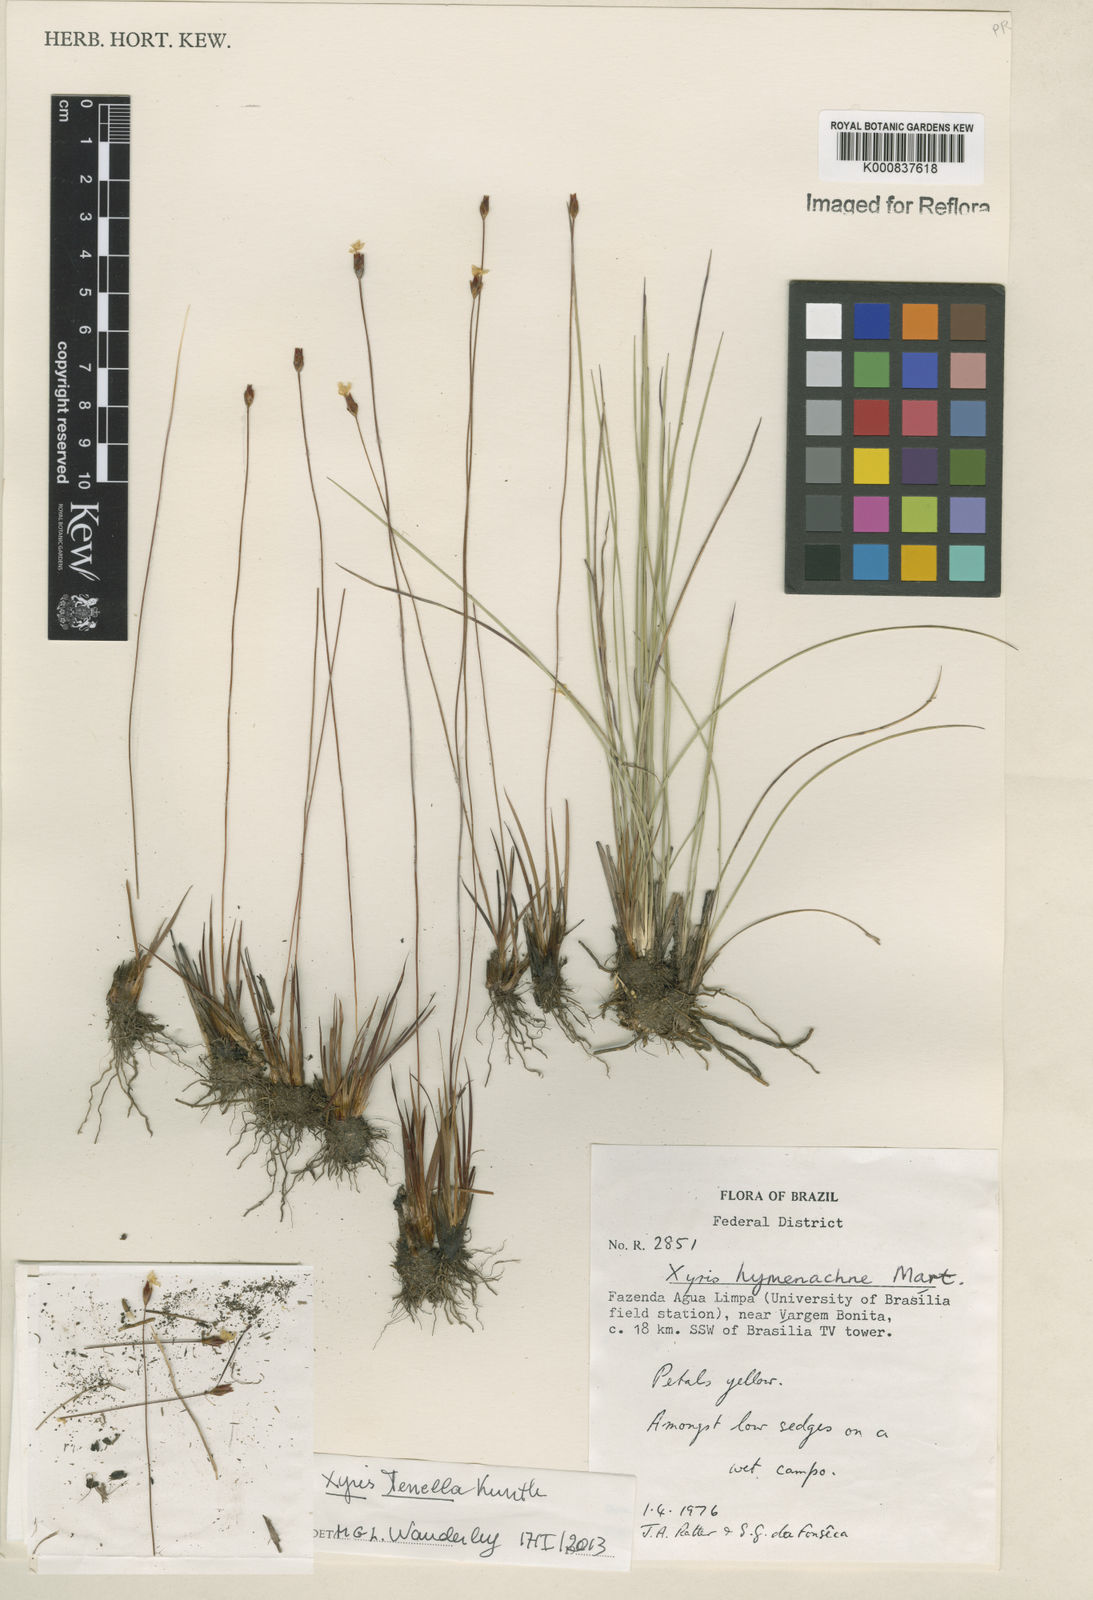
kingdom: Plantae
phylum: Tracheophyta
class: Liliopsida
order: Poales
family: Xyridaceae
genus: Xyris
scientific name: Xyris tenella
